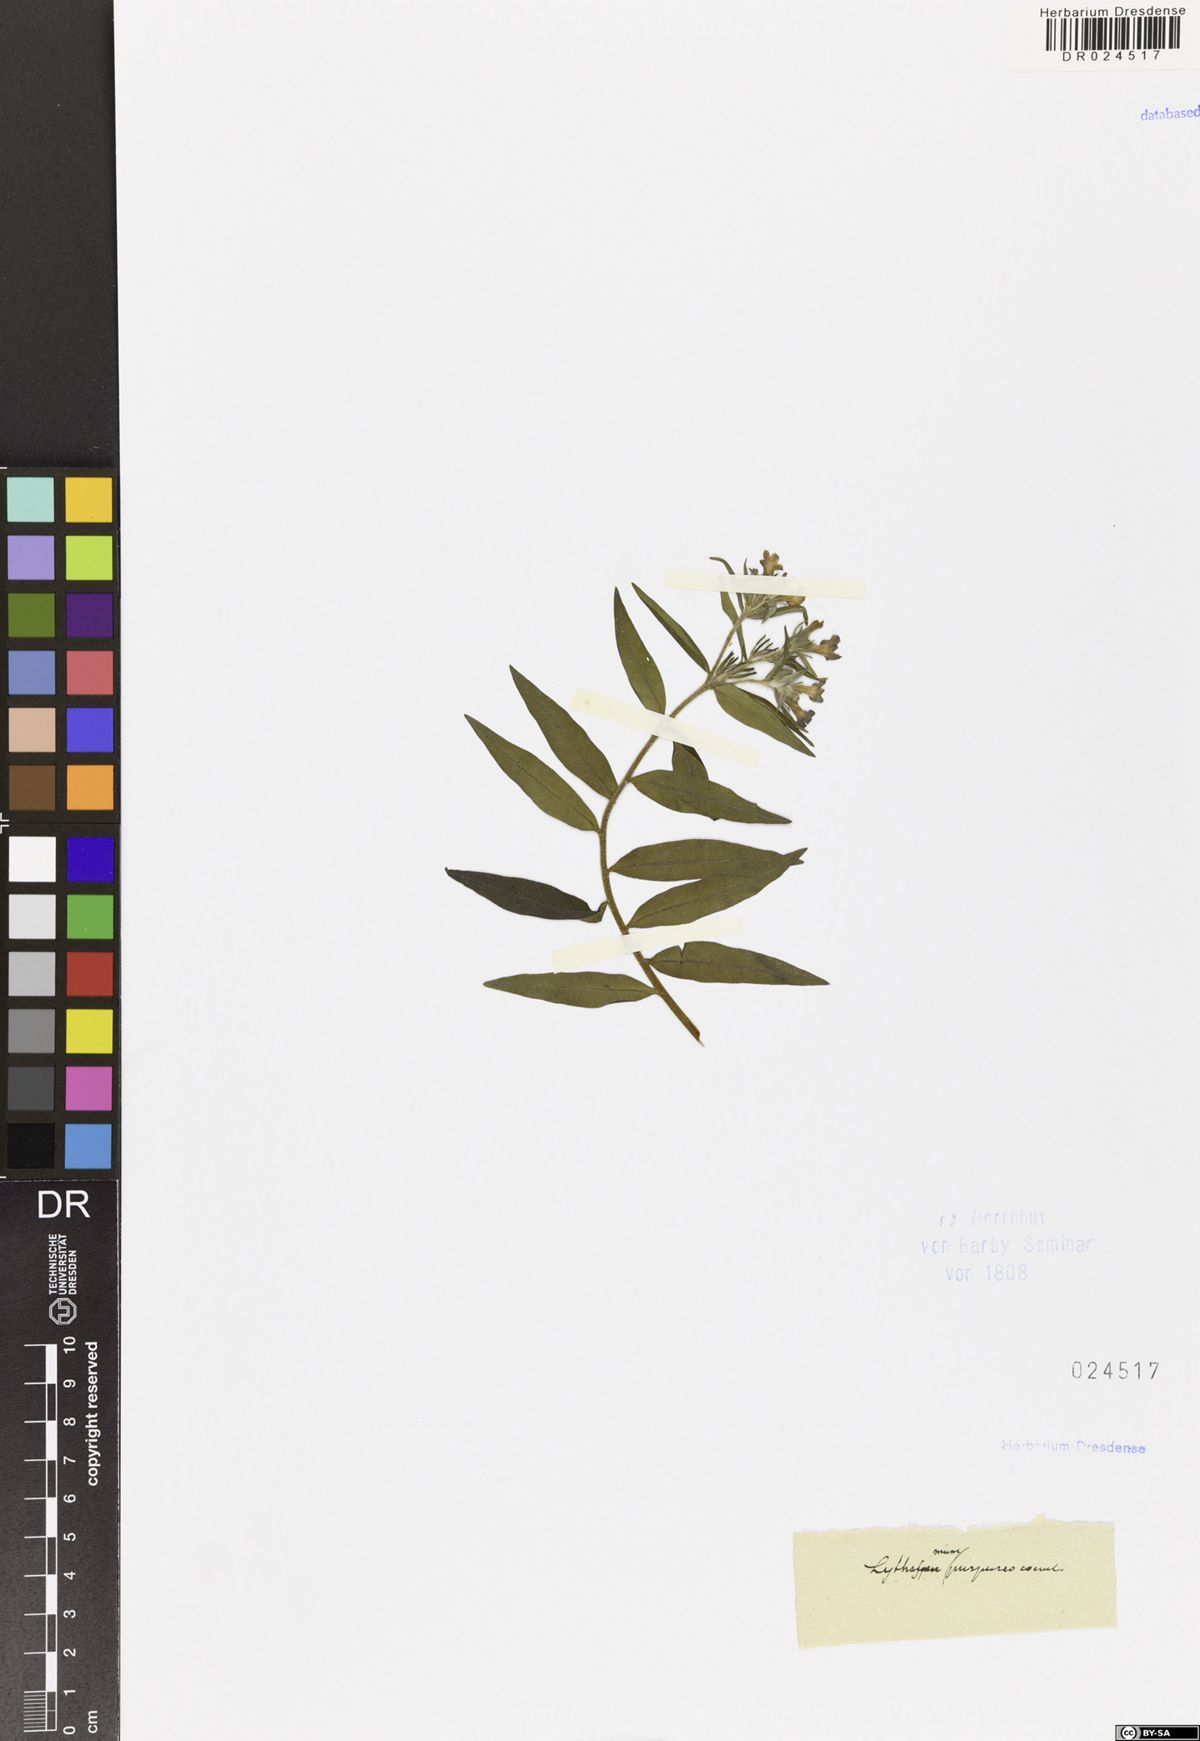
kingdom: Plantae
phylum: Tracheophyta
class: Magnoliopsida
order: Boraginales
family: Boraginaceae
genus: Aegonychon
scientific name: Aegonychon purpurocaeruleum
